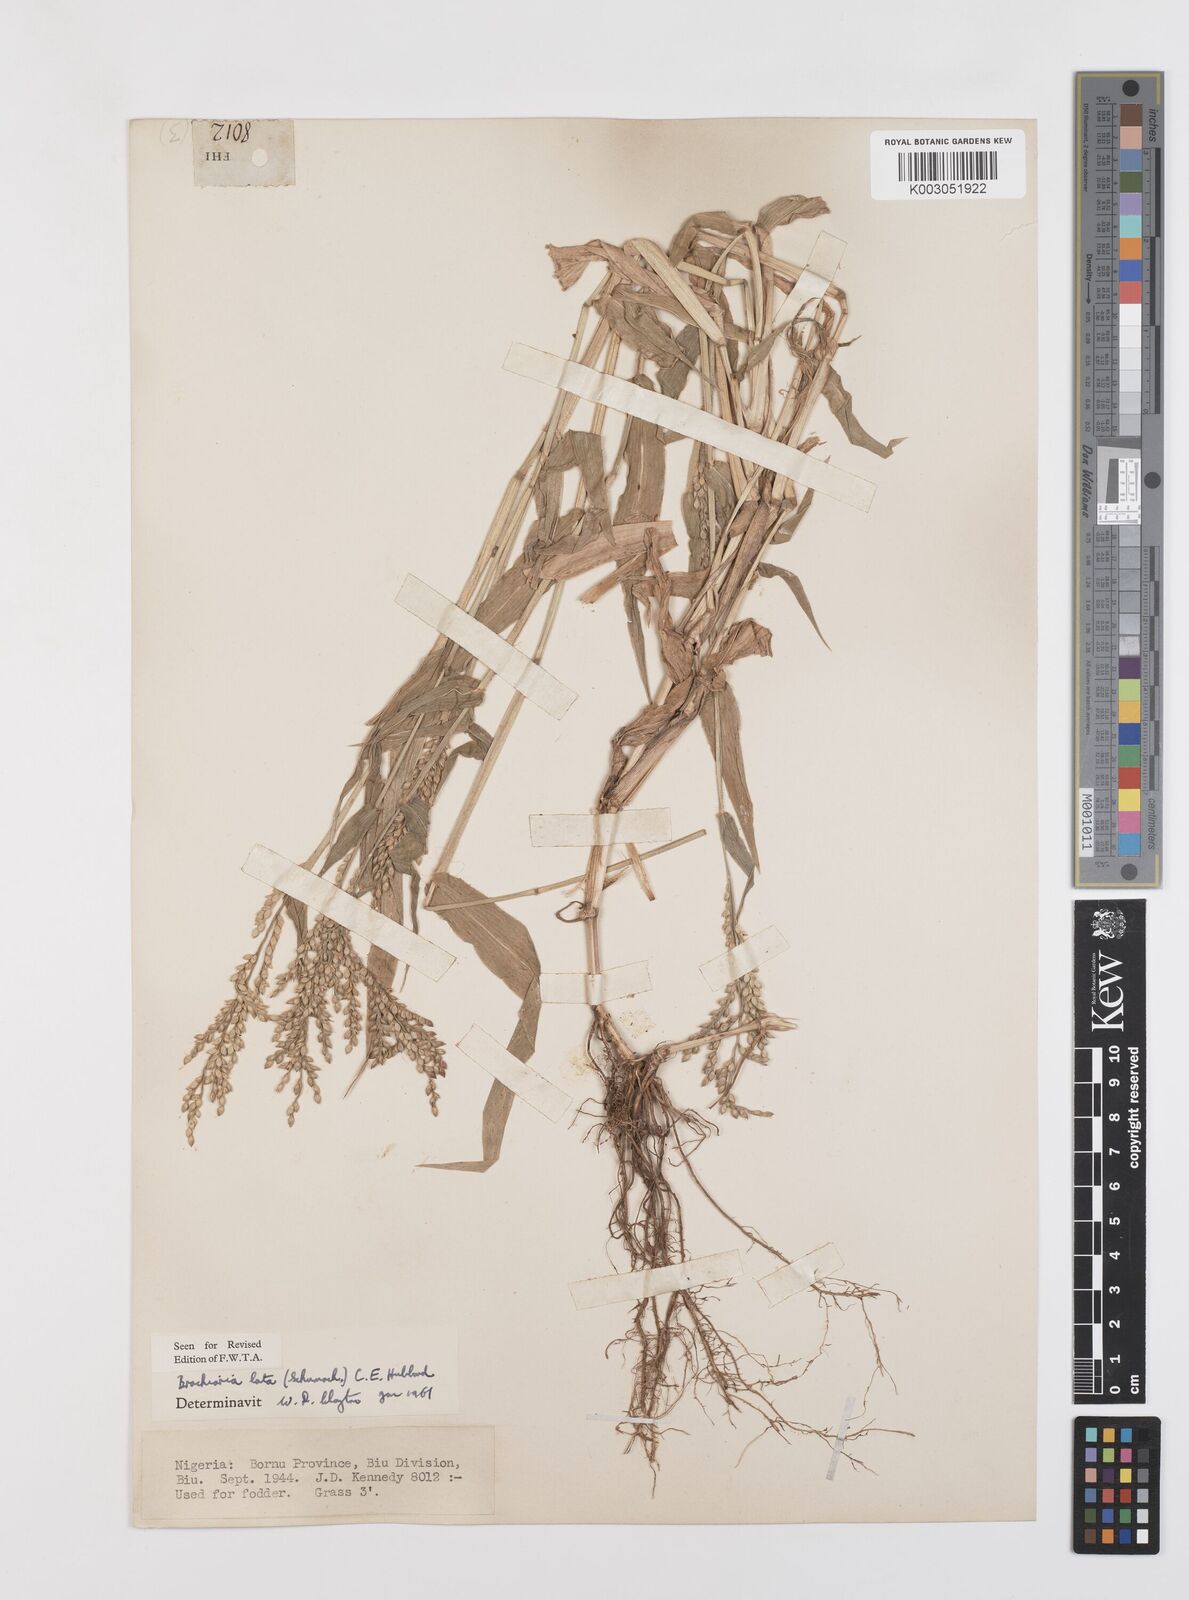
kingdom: Plantae
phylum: Tracheophyta
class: Liliopsida
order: Poales
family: Poaceae
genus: Urochloa
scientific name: Urochloa lata
